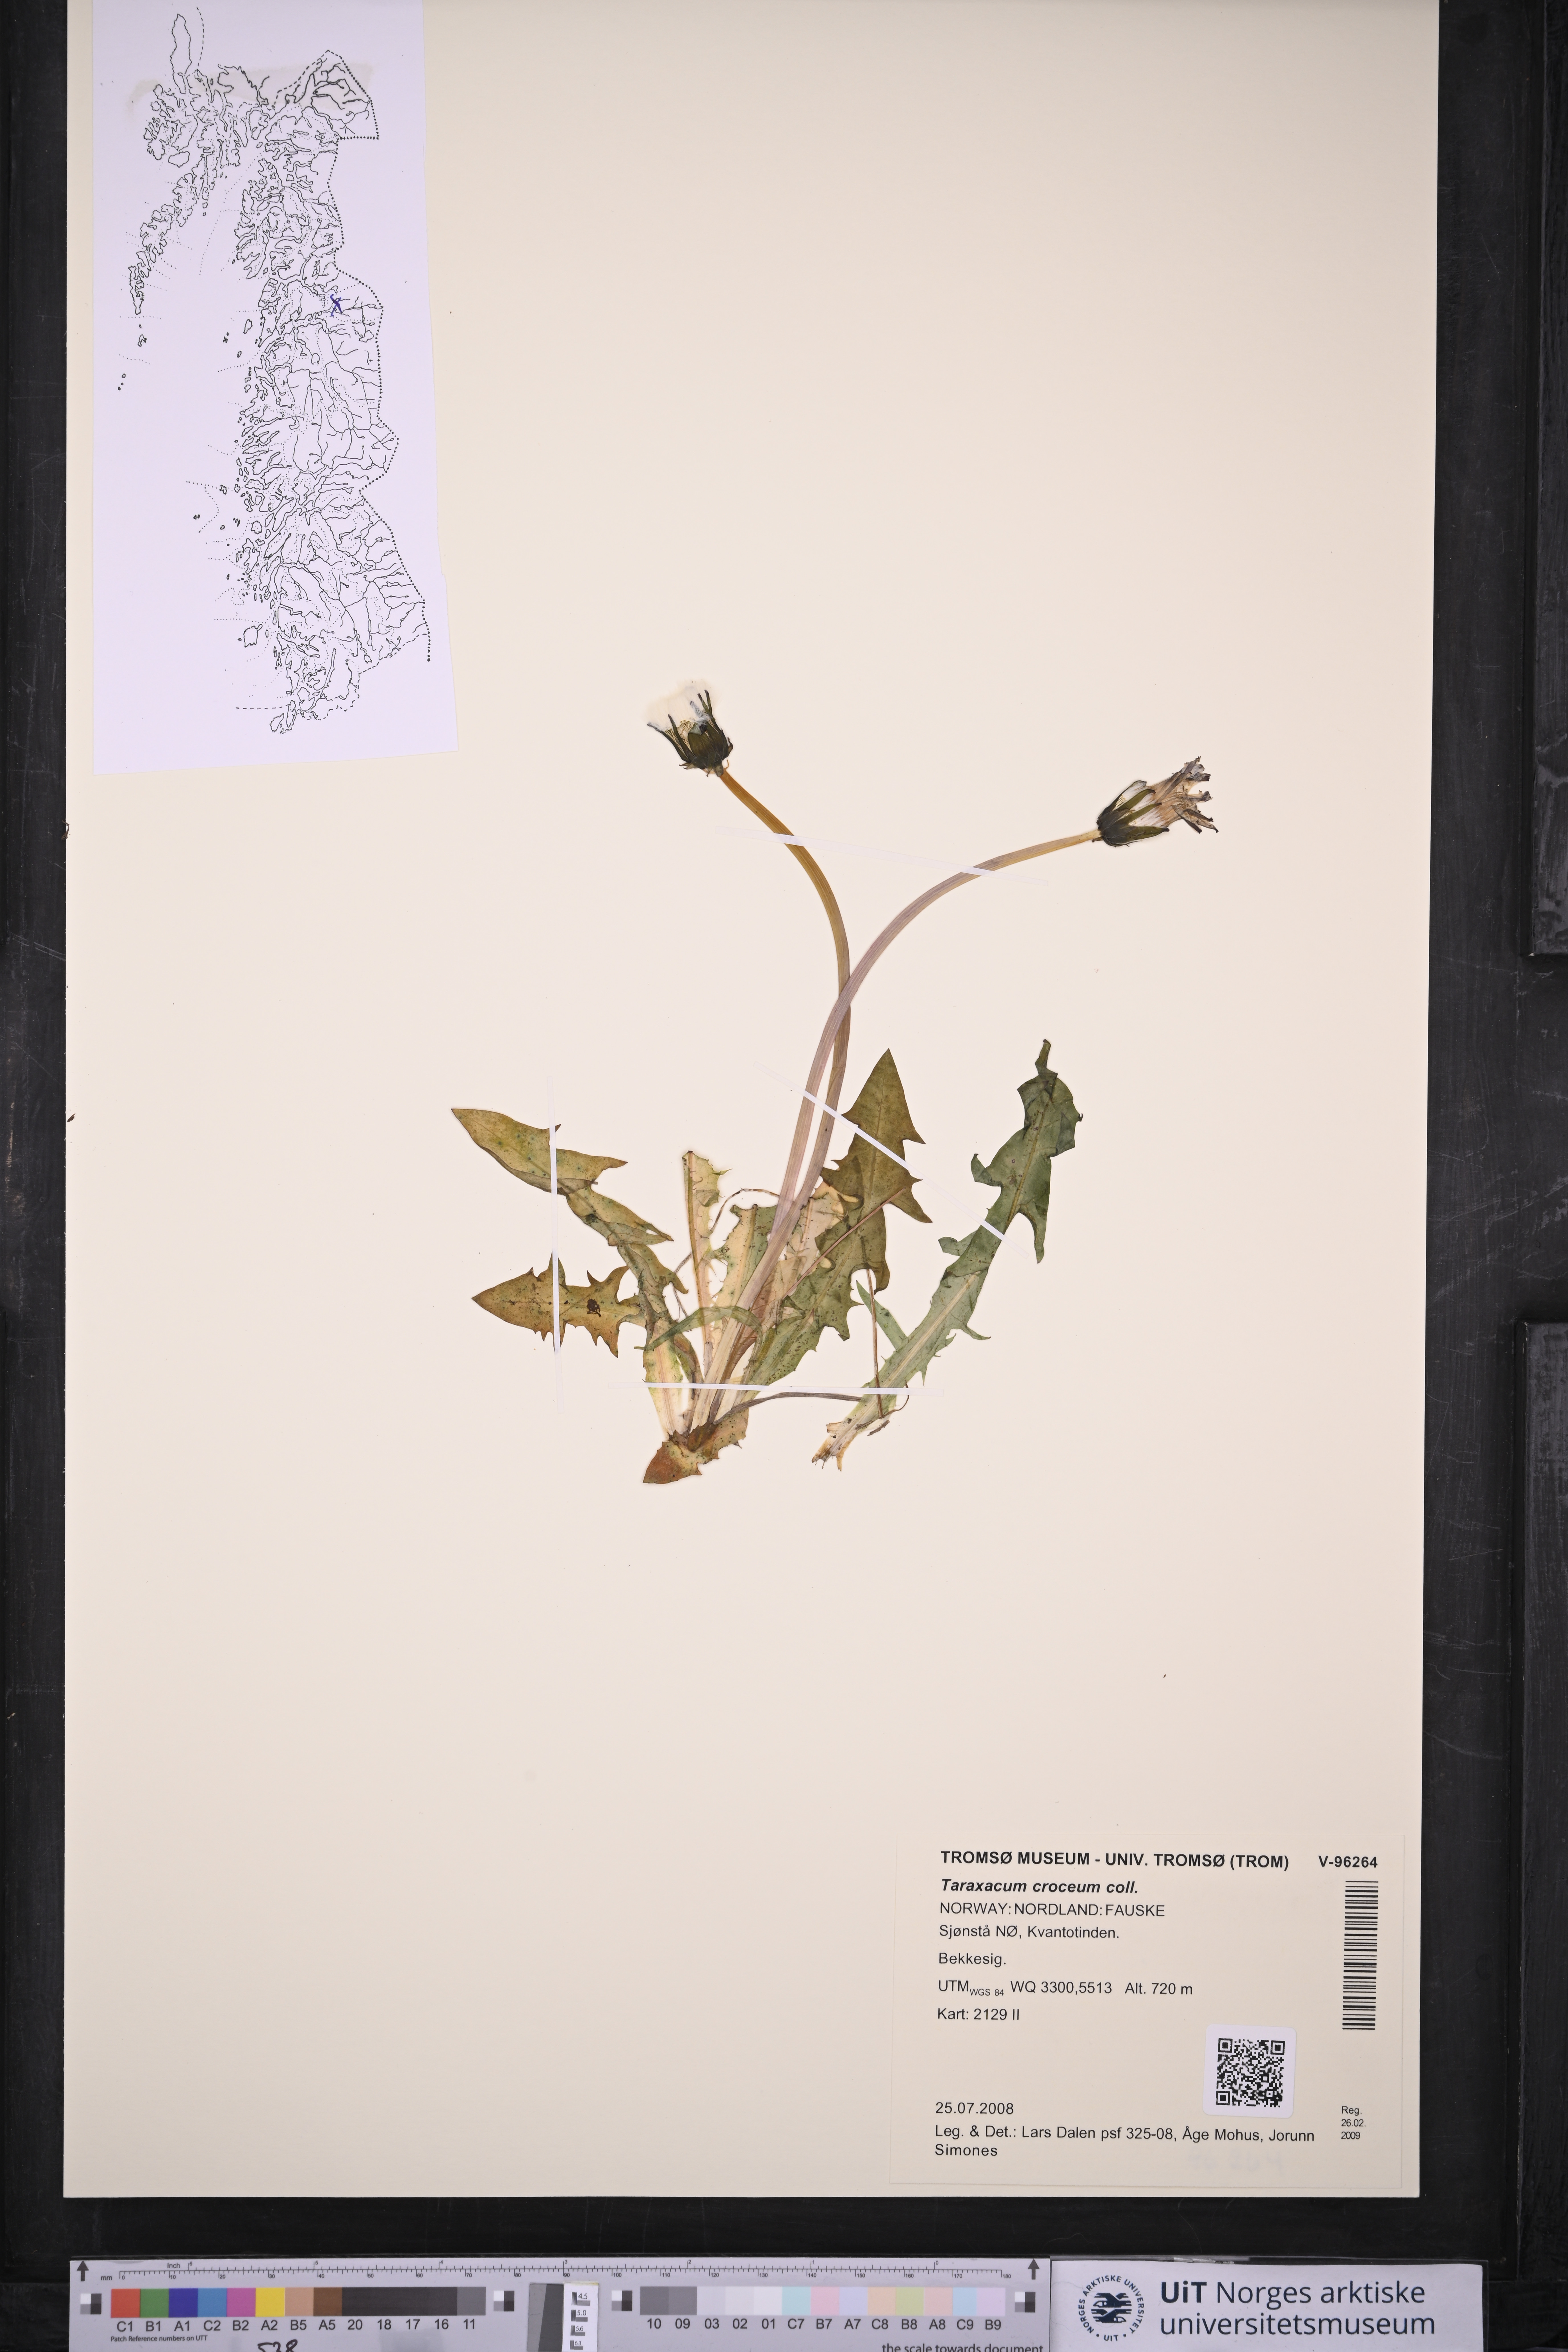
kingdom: Plantae
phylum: Tracheophyta
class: Magnoliopsida
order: Asterales
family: Asteraceae
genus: Taraxacum
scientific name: Taraxacum croceum
